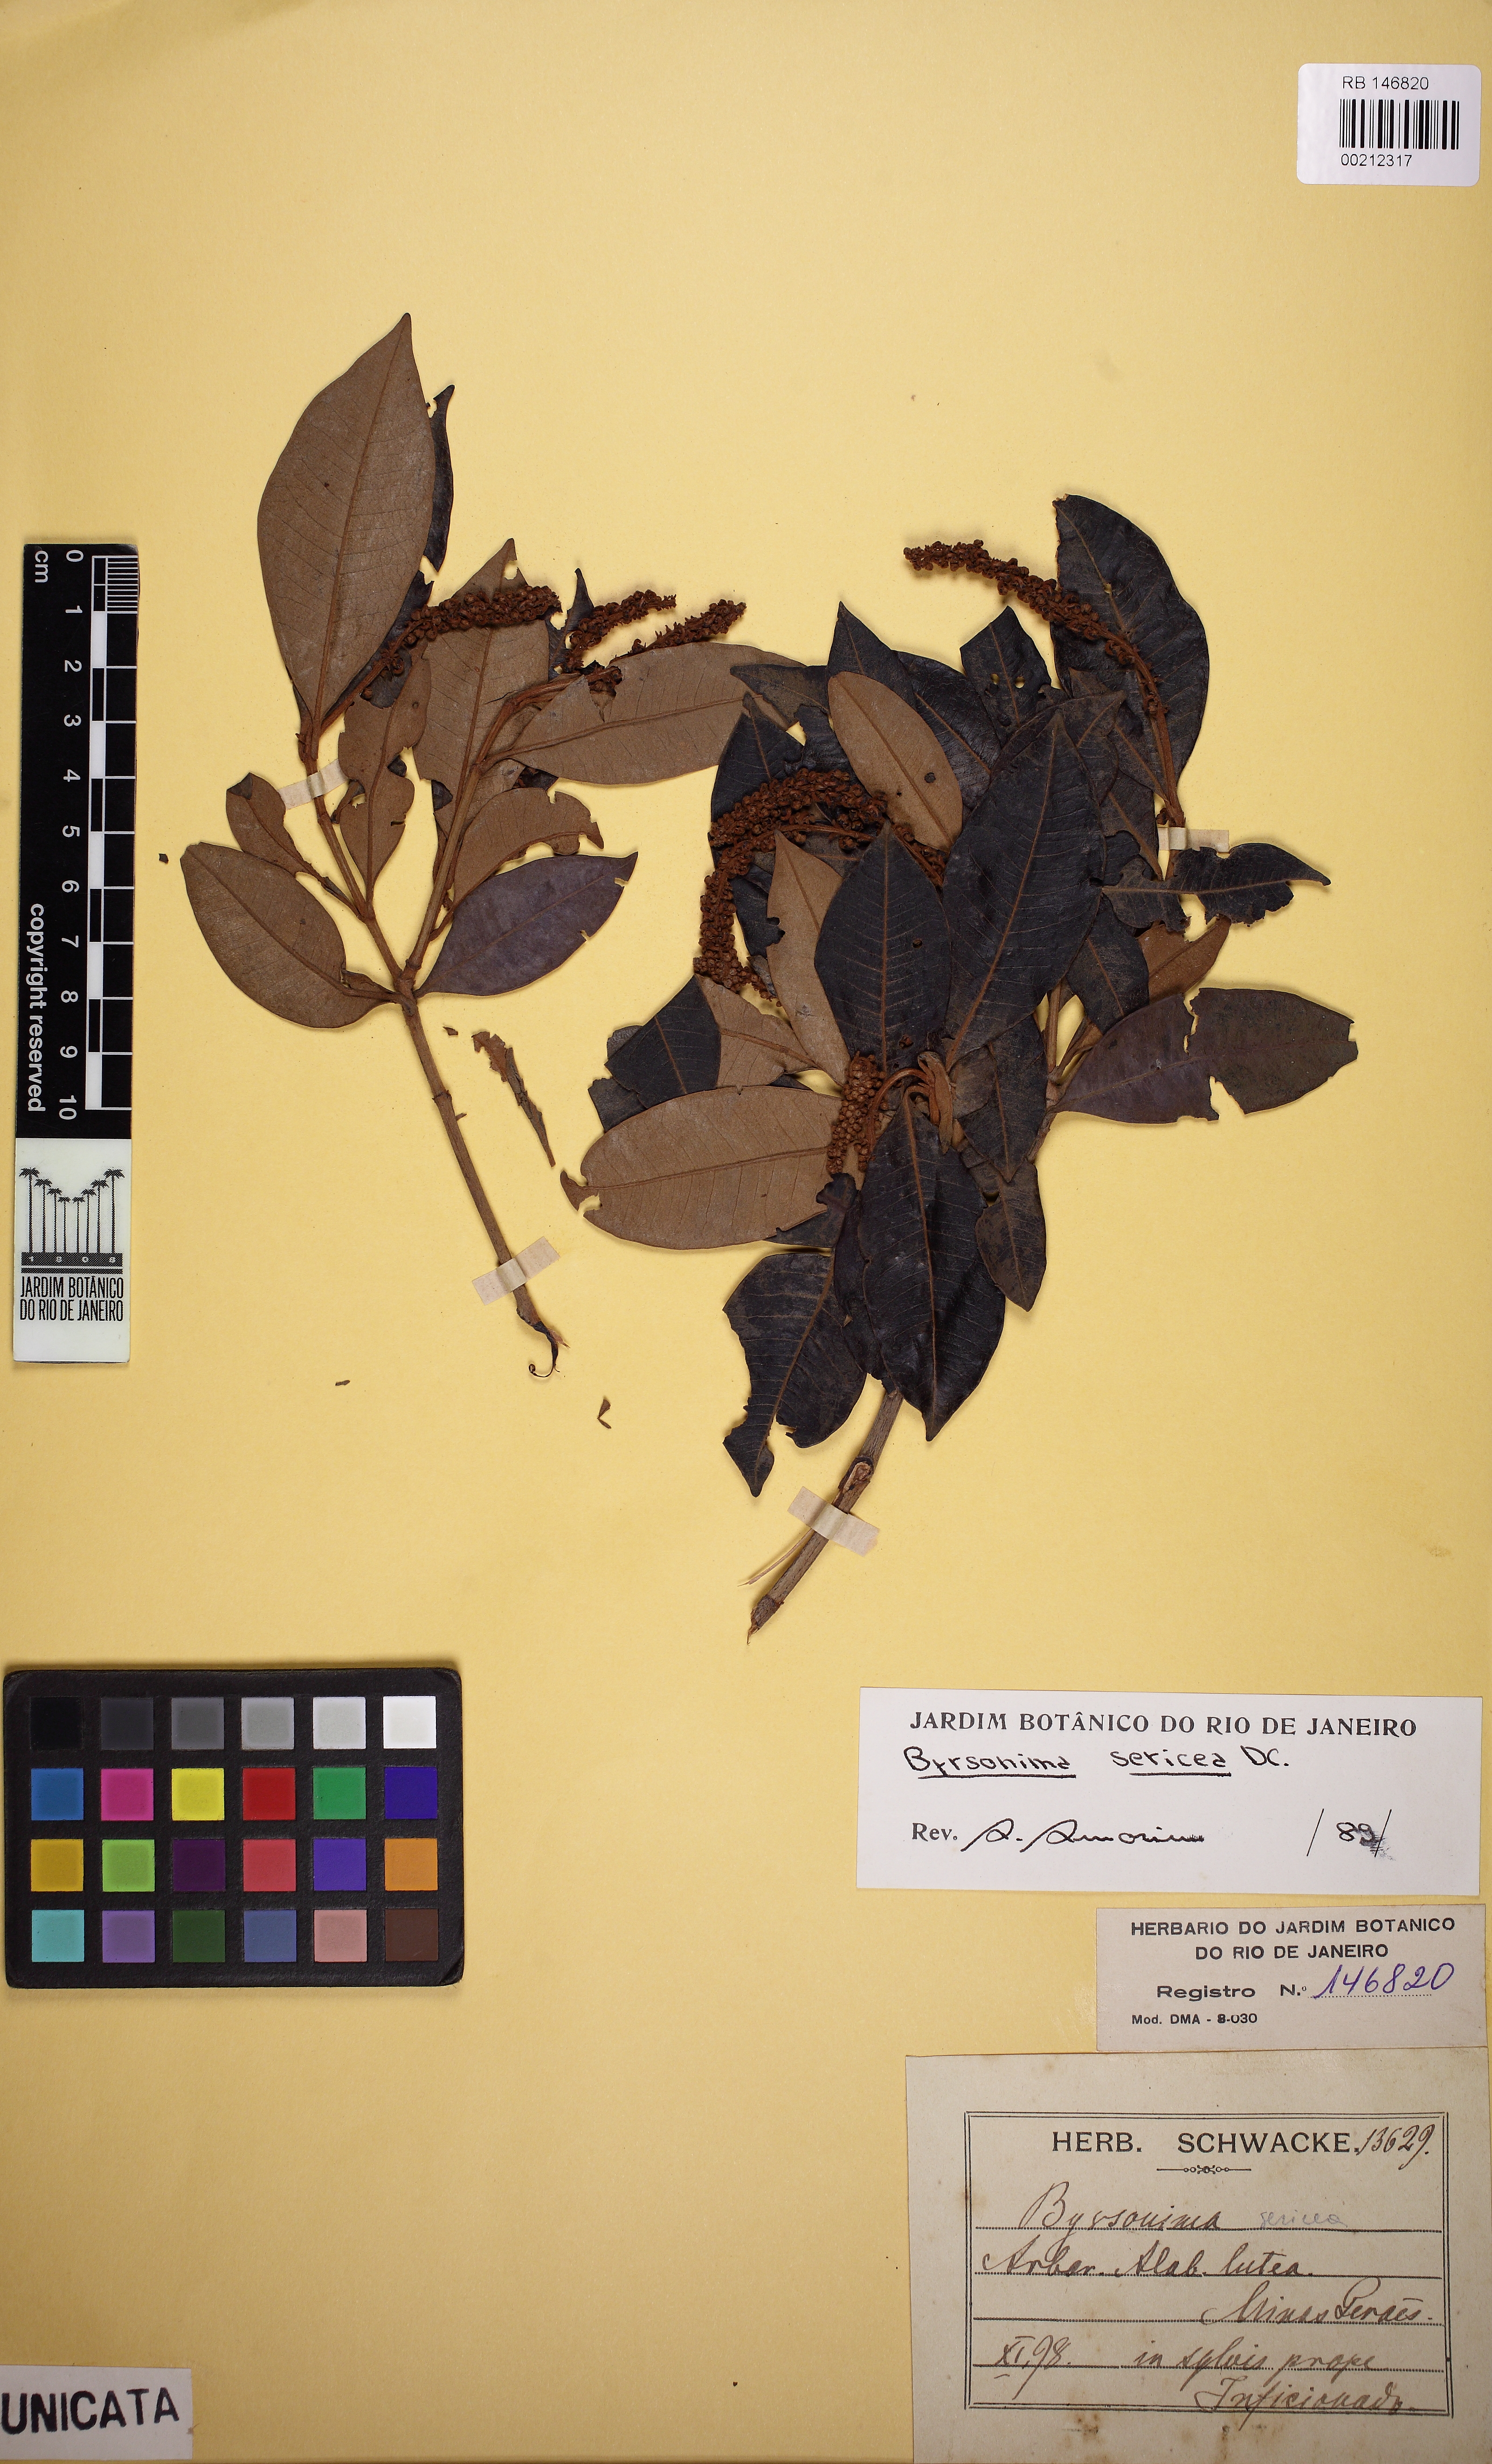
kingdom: Plantae
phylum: Tracheophyta
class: Magnoliopsida
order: Malpighiales
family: Malpighiaceae
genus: Byrsonima
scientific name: Byrsonima sericea
